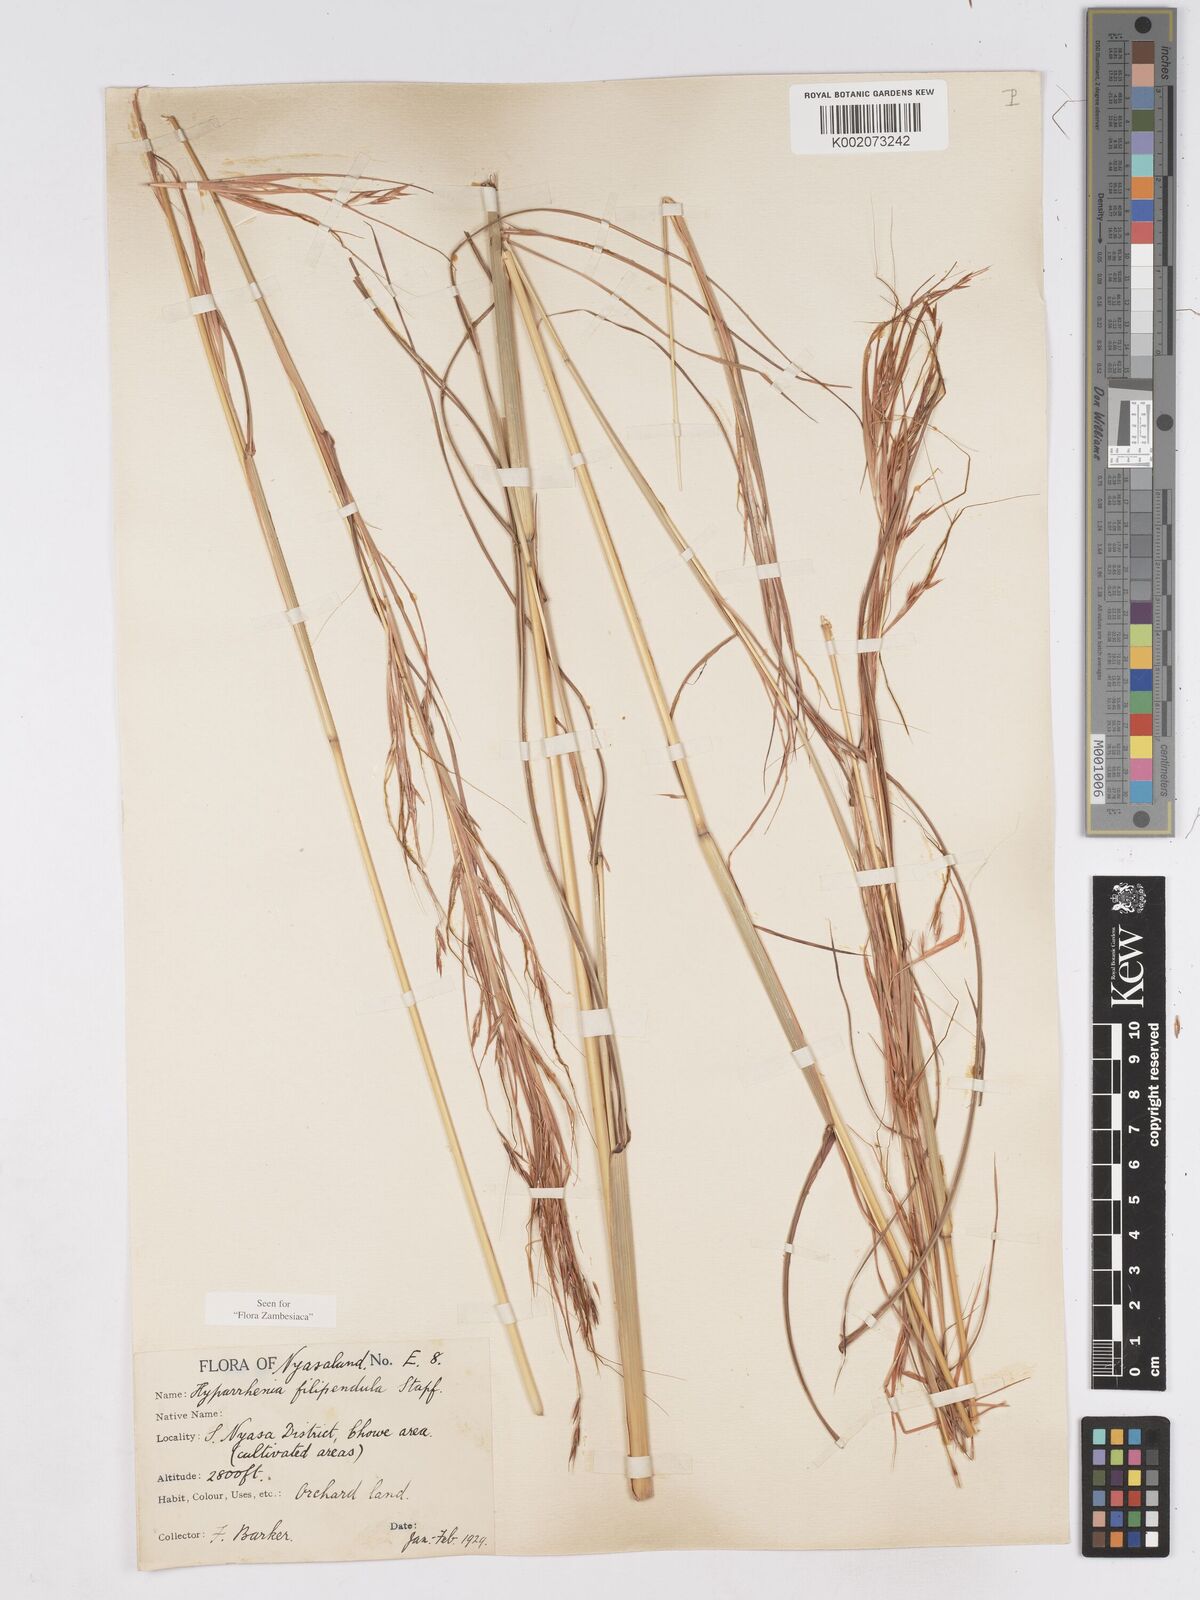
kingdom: Plantae
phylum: Tracheophyta
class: Liliopsida
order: Poales
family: Poaceae
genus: Hyparrhenia
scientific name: Hyparrhenia filipendula
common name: Tambookie grass
